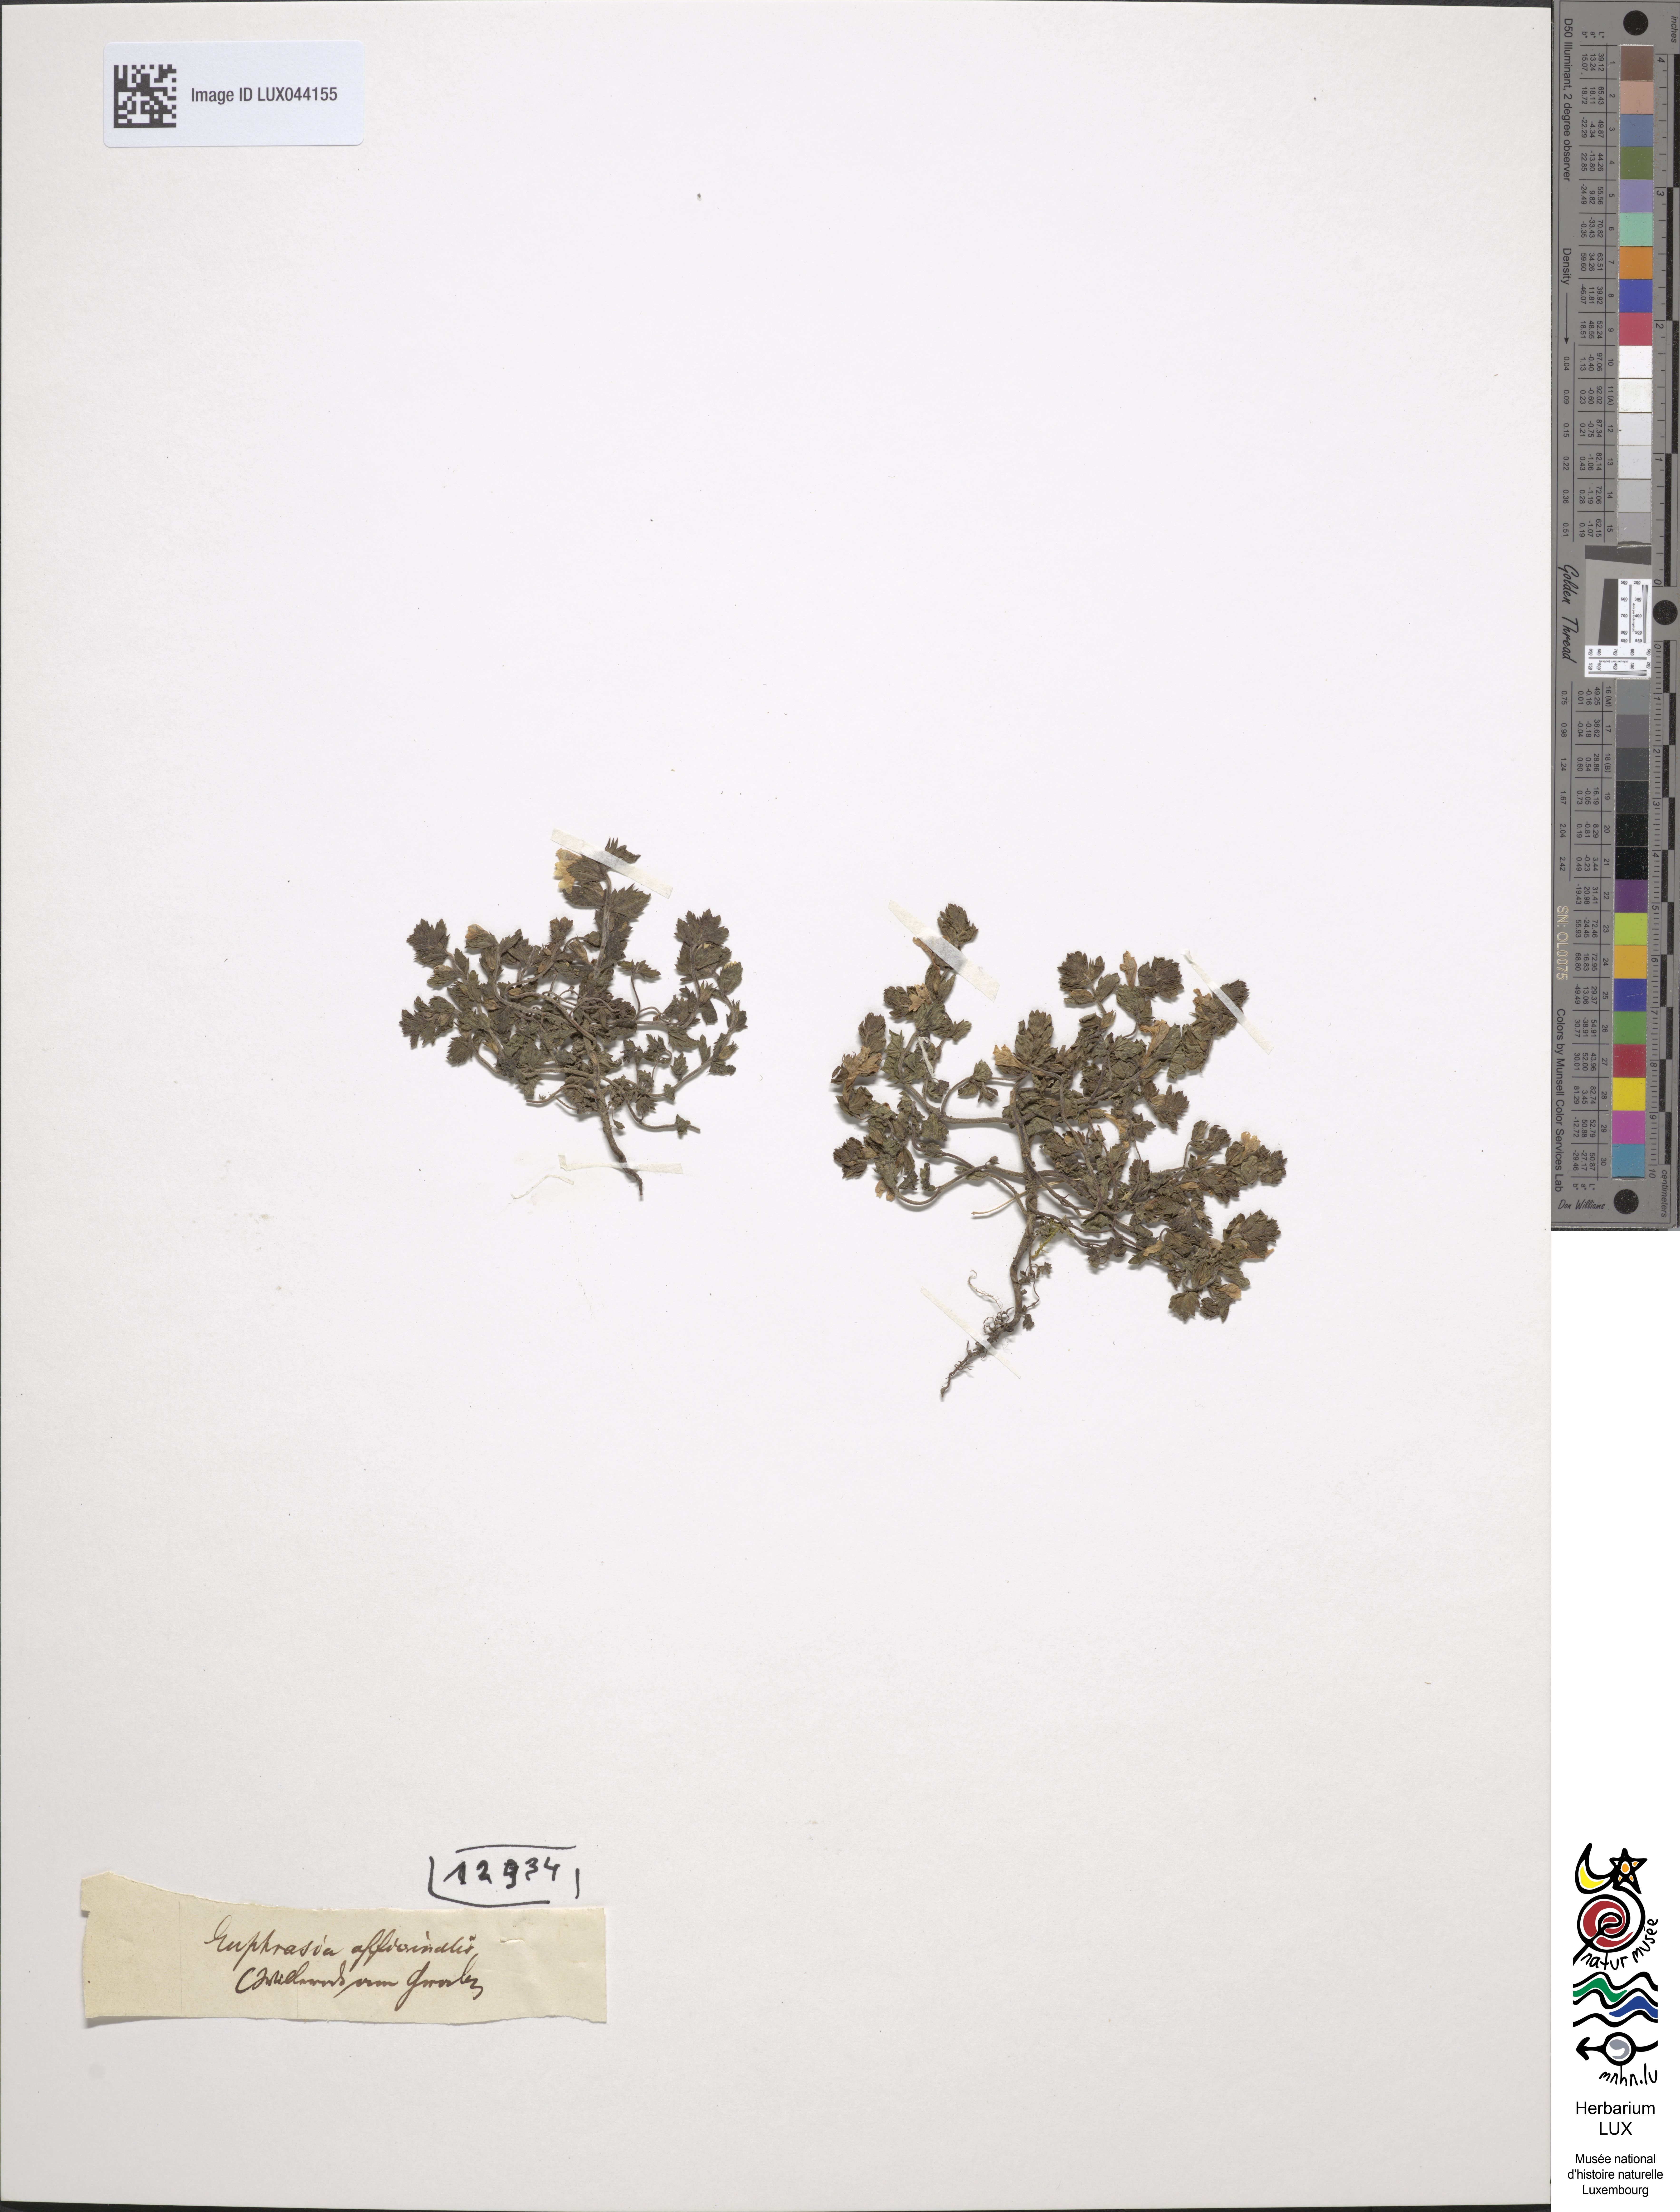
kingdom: Plantae
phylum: Tracheophyta
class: Magnoliopsida
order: Lamiales
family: Orobanchaceae
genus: Euphrasia
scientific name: Euphrasia officinalis
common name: Eyebright
